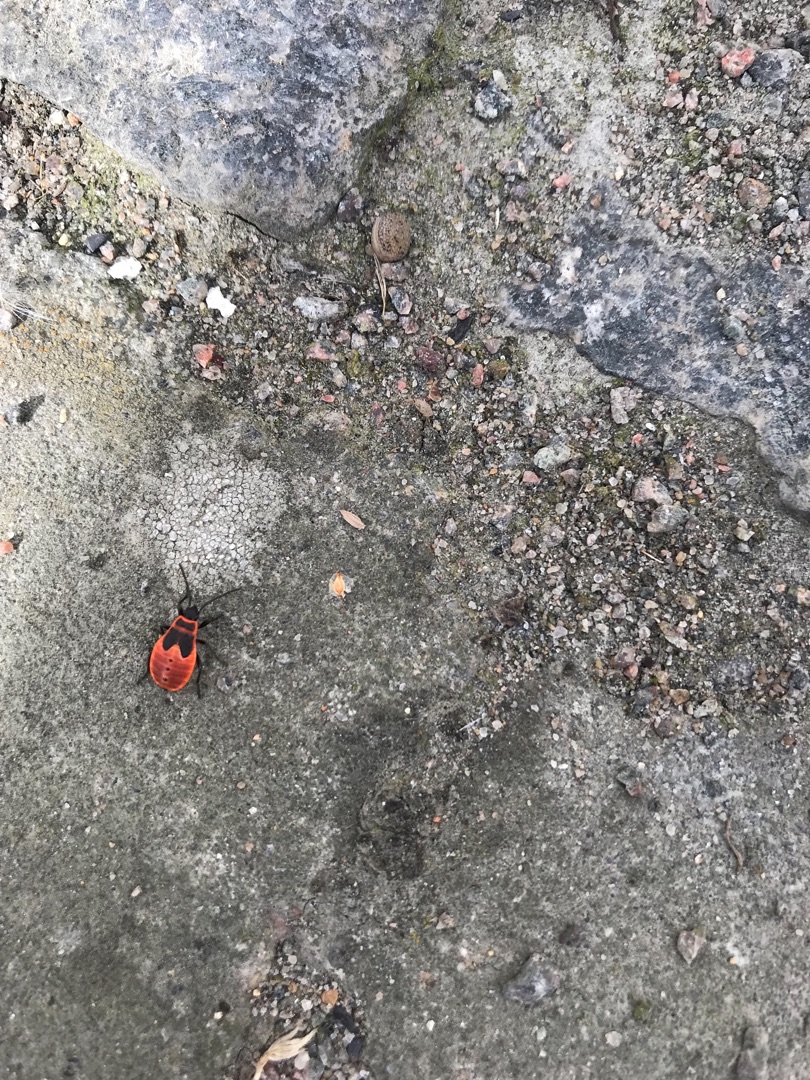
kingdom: Animalia
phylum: Arthropoda
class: Insecta
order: Hemiptera
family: Pyrrhocoridae
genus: Pyrrhocoris
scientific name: Pyrrhocoris apterus
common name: Ildtæge
